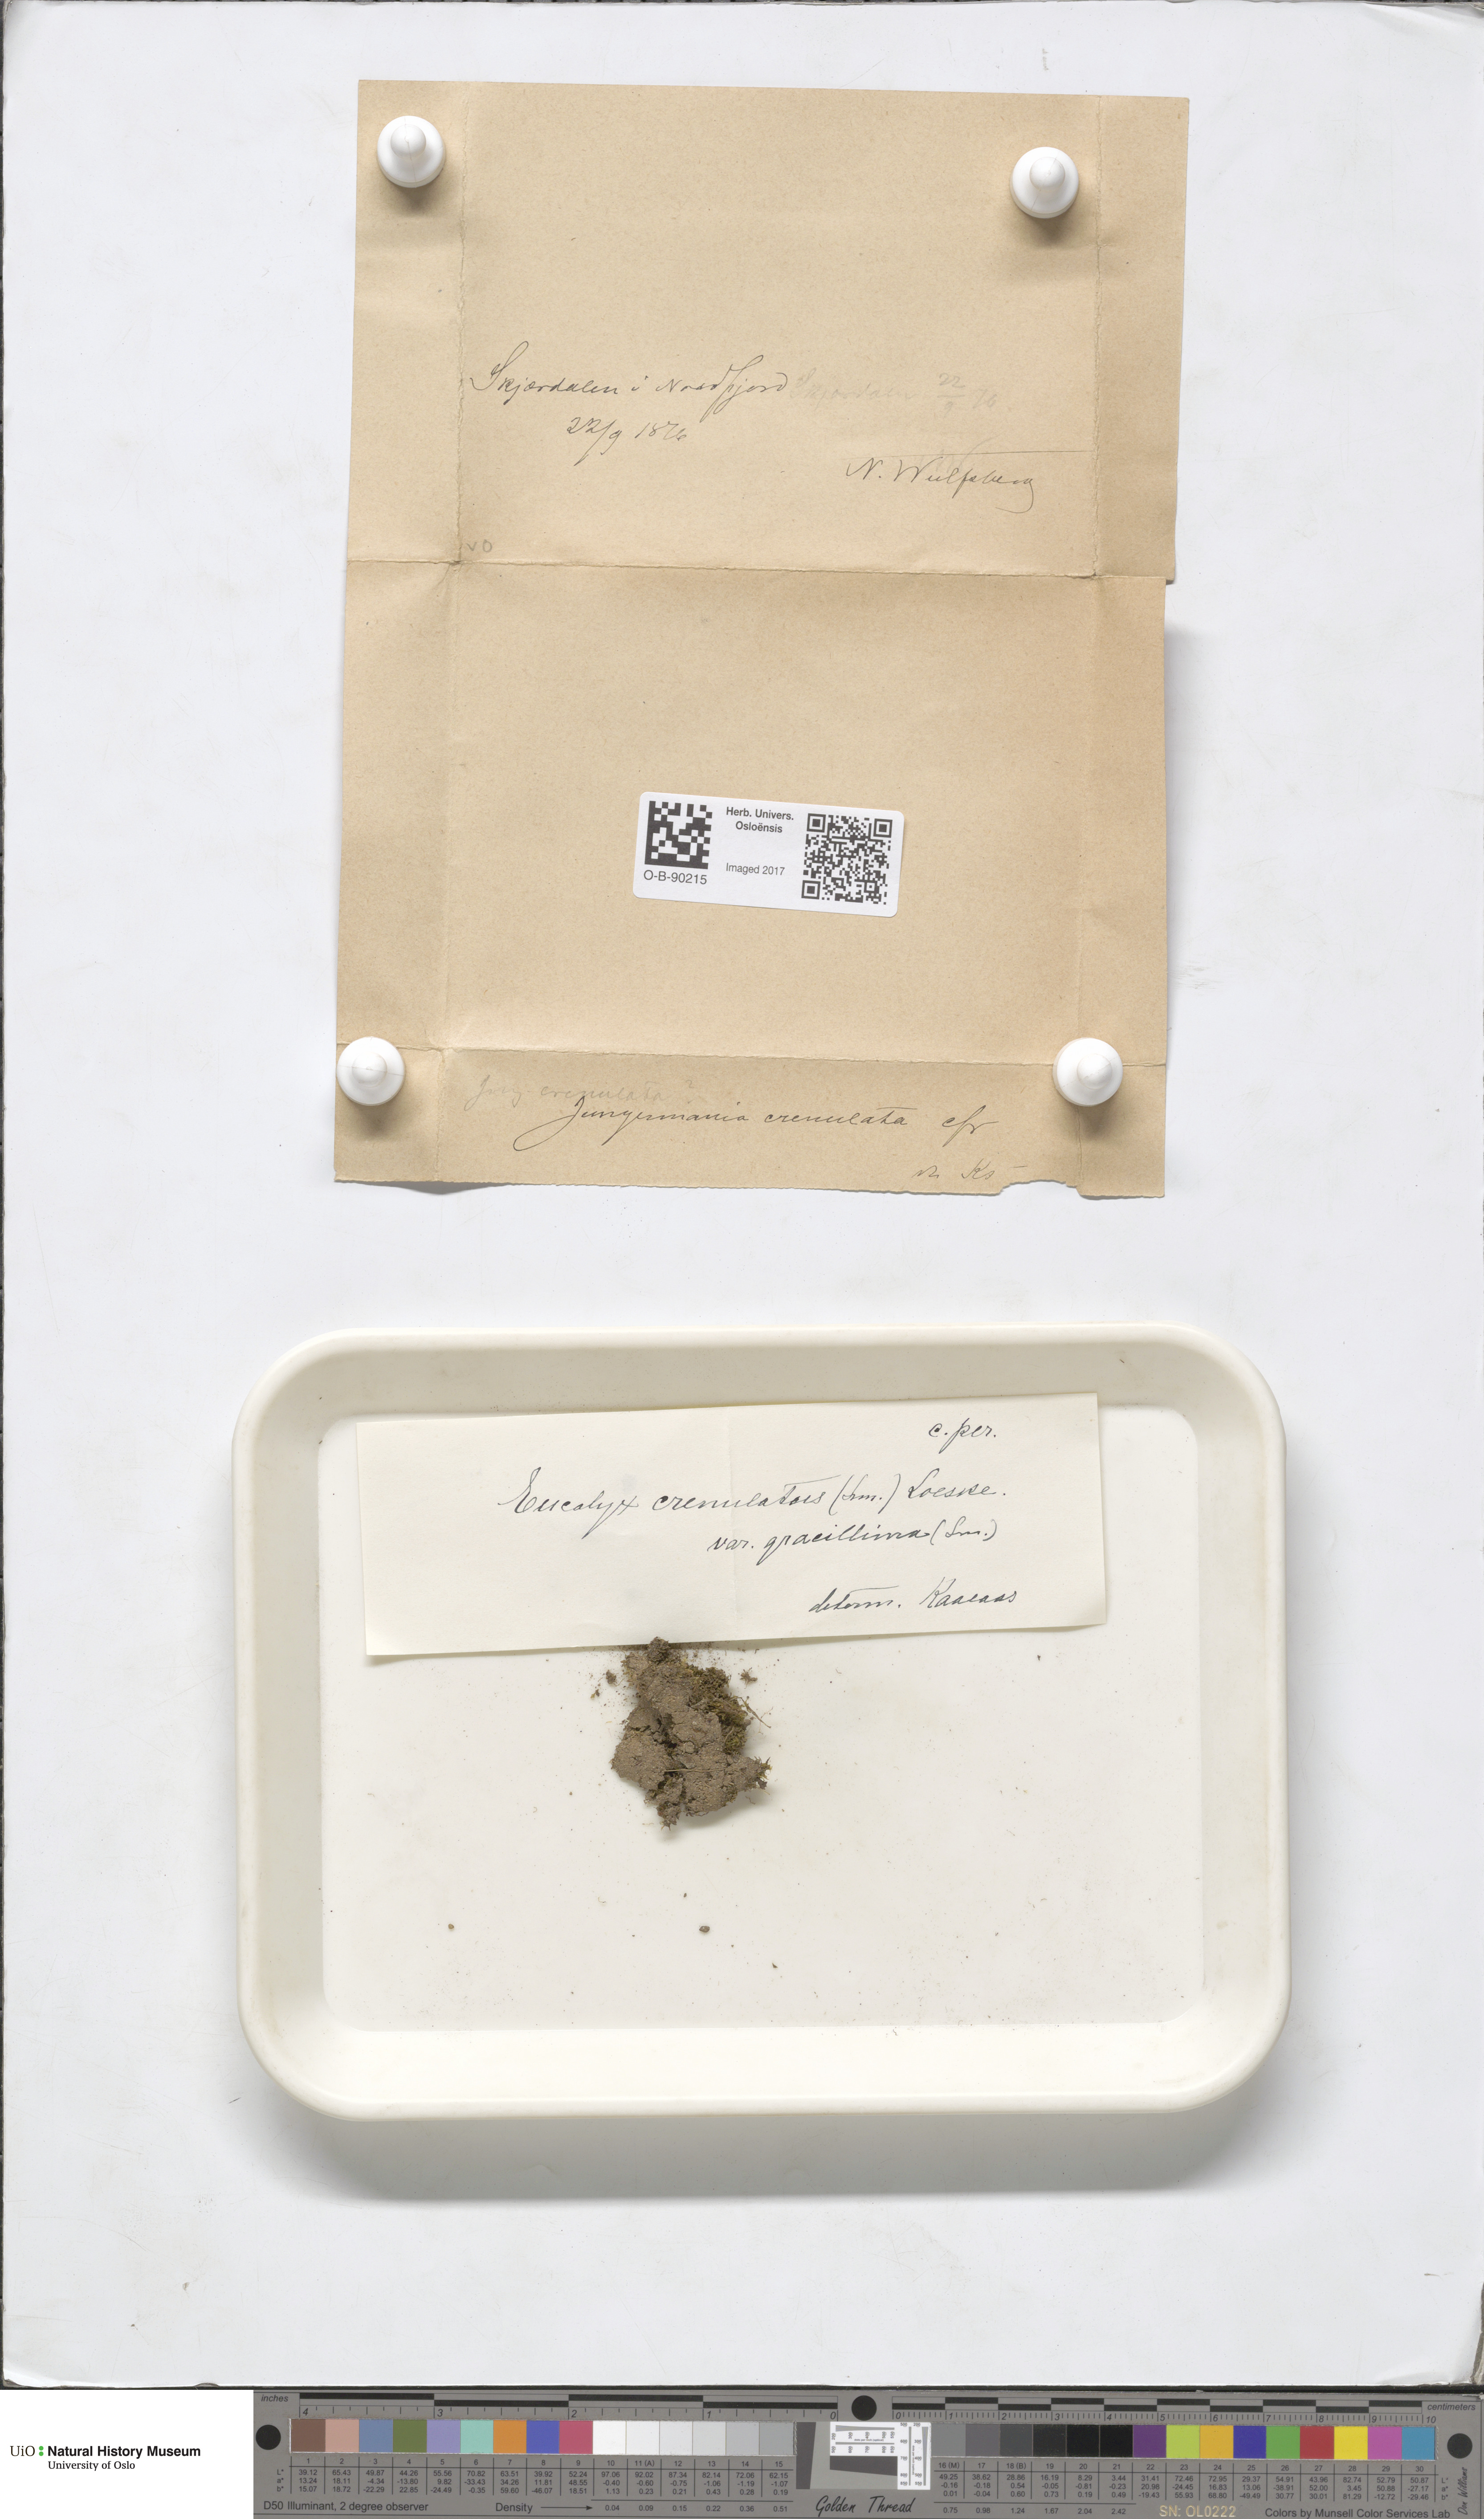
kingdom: Plantae
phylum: Marchantiophyta
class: Jungermanniopsida
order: Jungermanniales
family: Solenostomataceae
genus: Solenostoma
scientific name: Solenostoma gracillimum
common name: Crenulated flapwort
